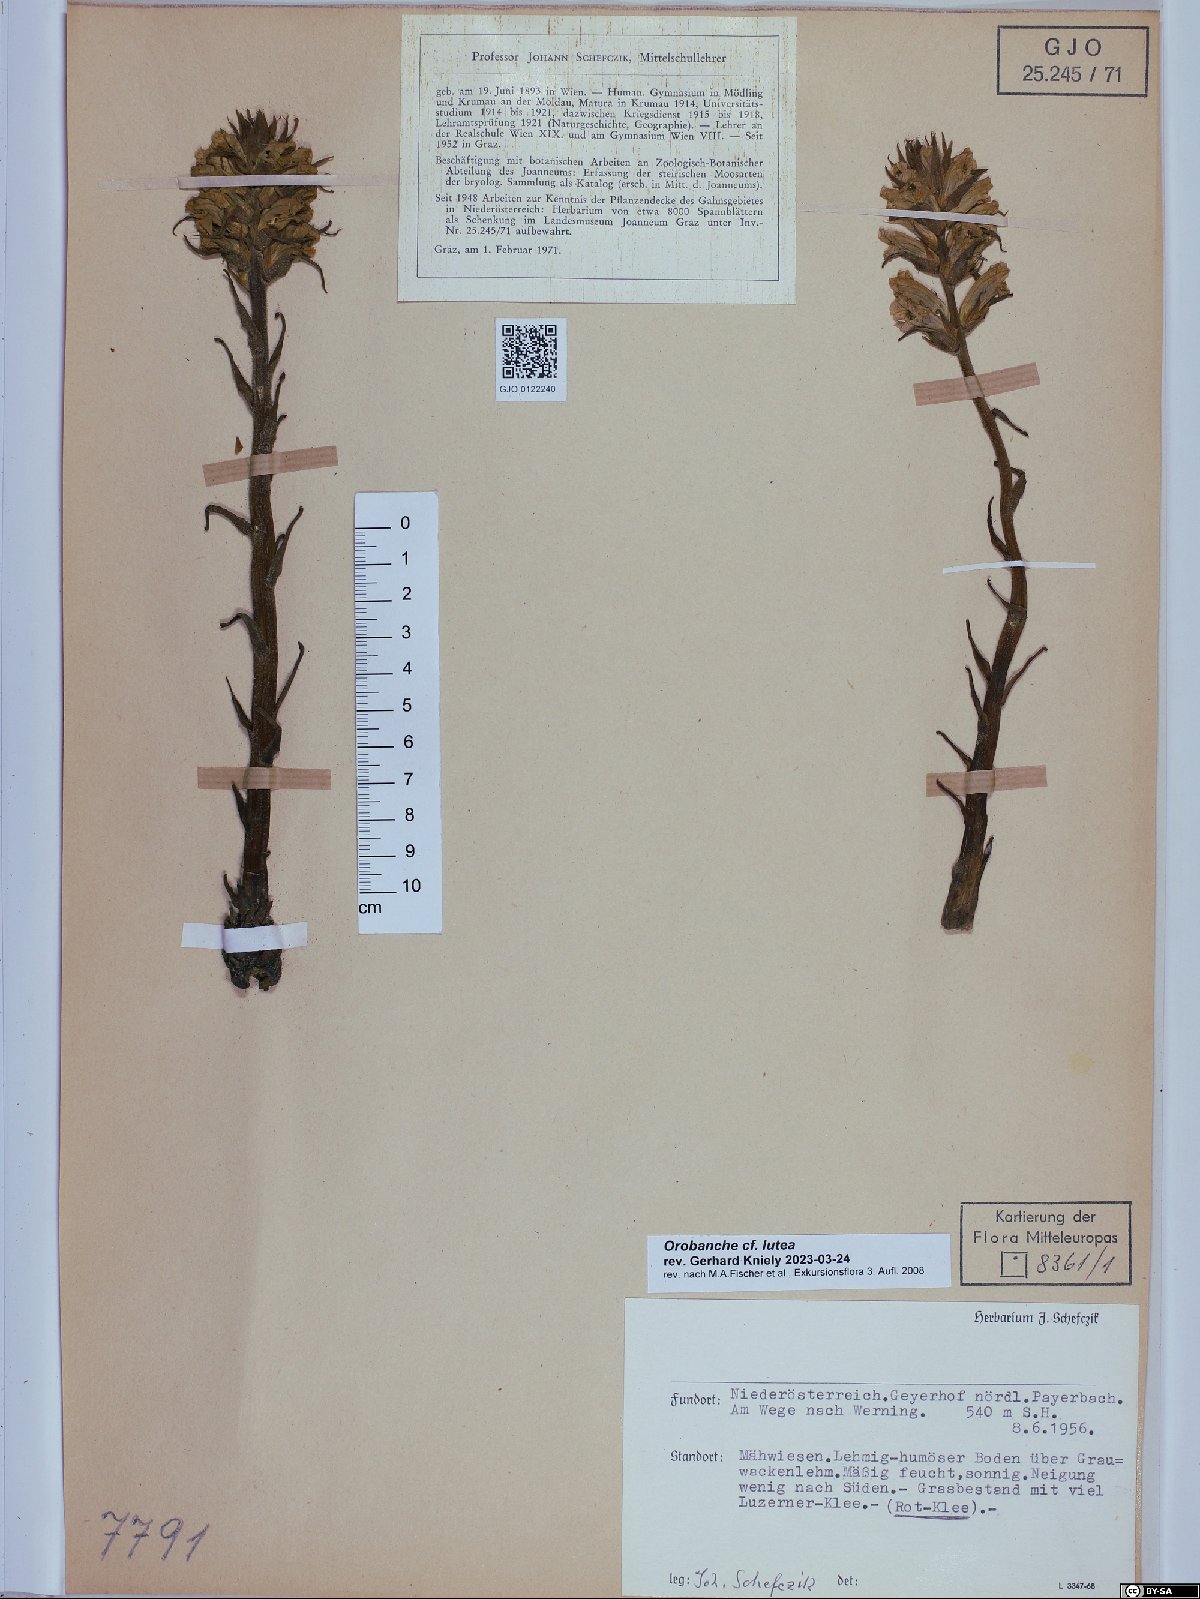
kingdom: Plantae
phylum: Tracheophyta
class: Magnoliopsida
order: Lamiales
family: Orobanchaceae
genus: Orobanche
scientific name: Orobanche lutea
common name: Yellow broomrape
